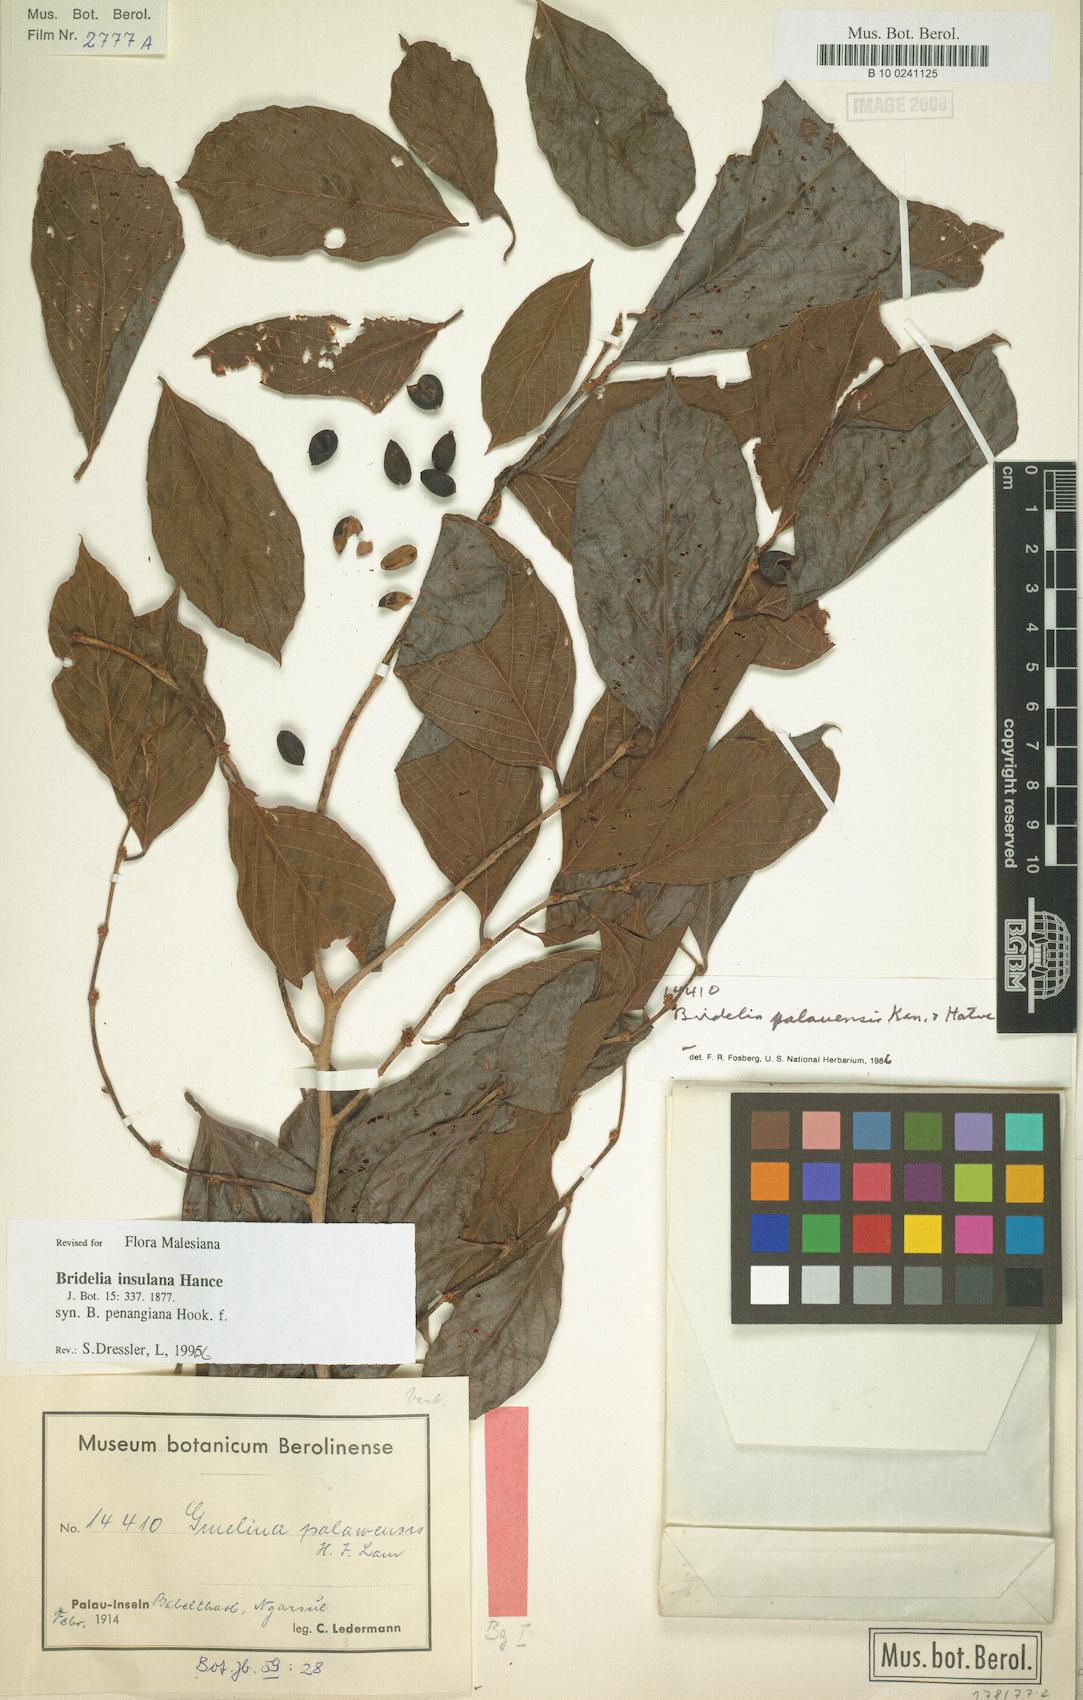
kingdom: Plantae
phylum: Tracheophyta
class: Magnoliopsida
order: Malpighiales
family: Phyllanthaceae
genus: Bridelia
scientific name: Bridelia insulana
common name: Grey-birch
